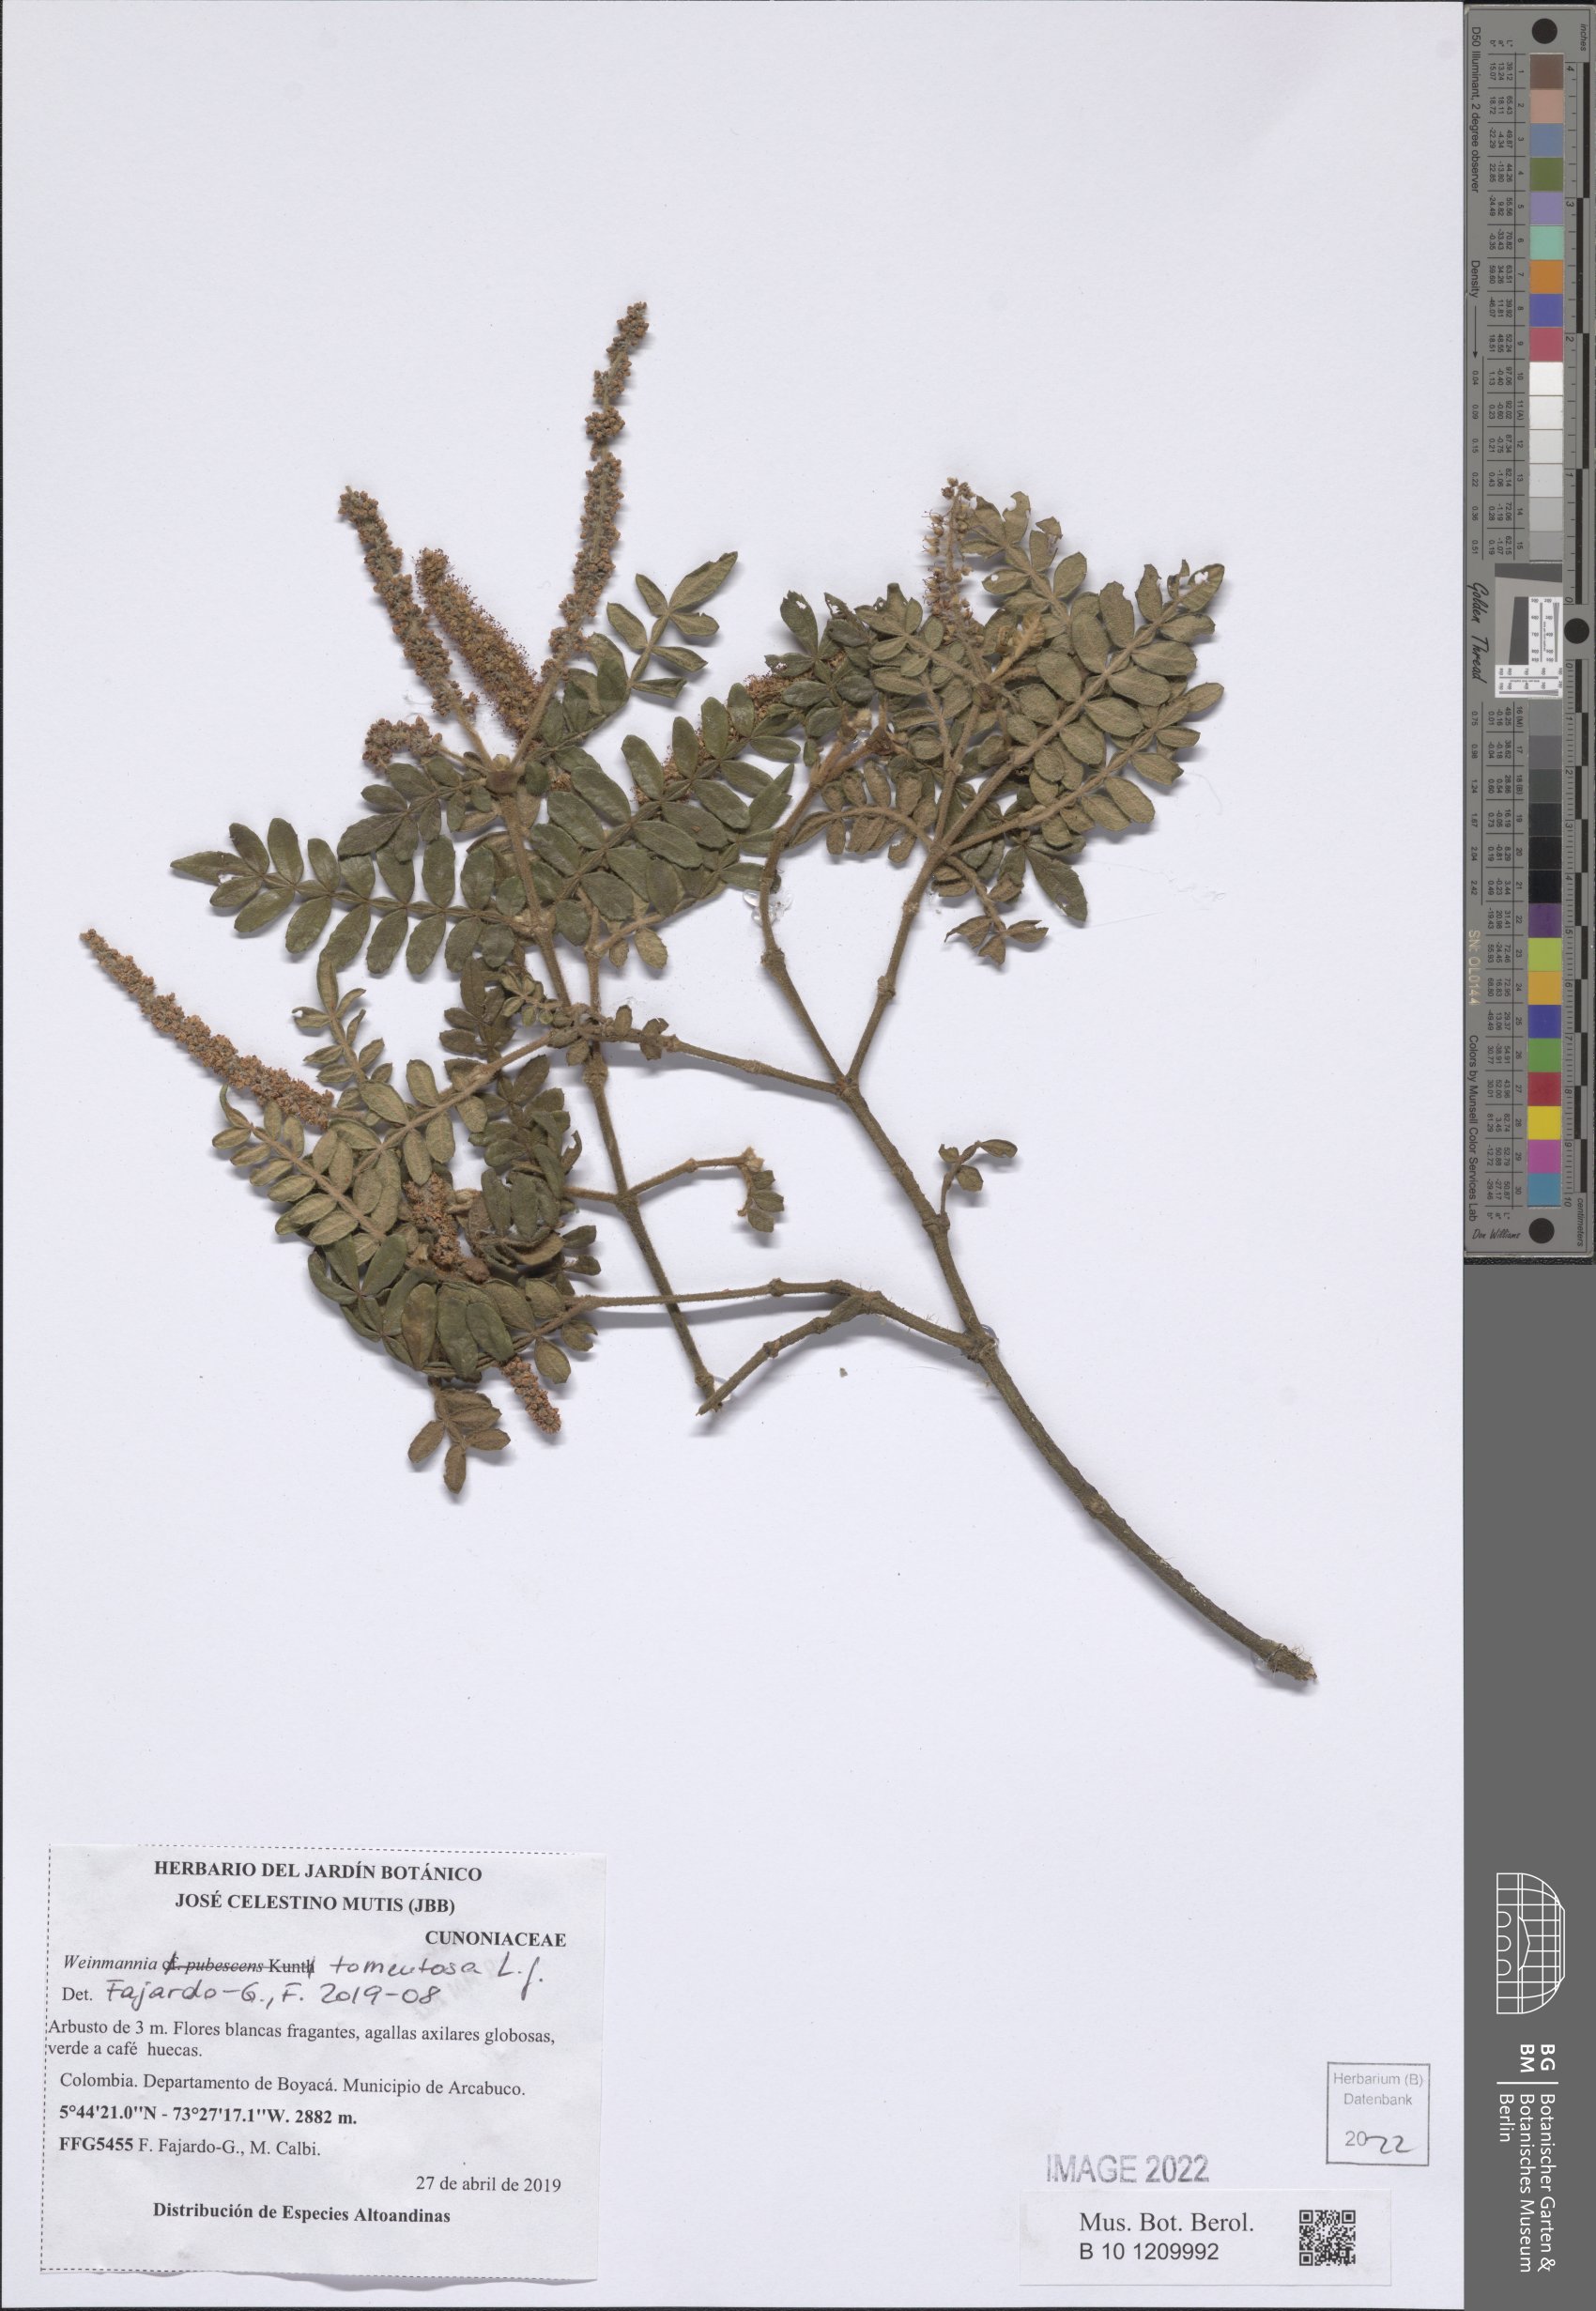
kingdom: Plantae
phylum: Tracheophyta
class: Magnoliopsida
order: Oxalidales
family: Cunoniaceae
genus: Weinmannia
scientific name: Weinmannia tomentosa
